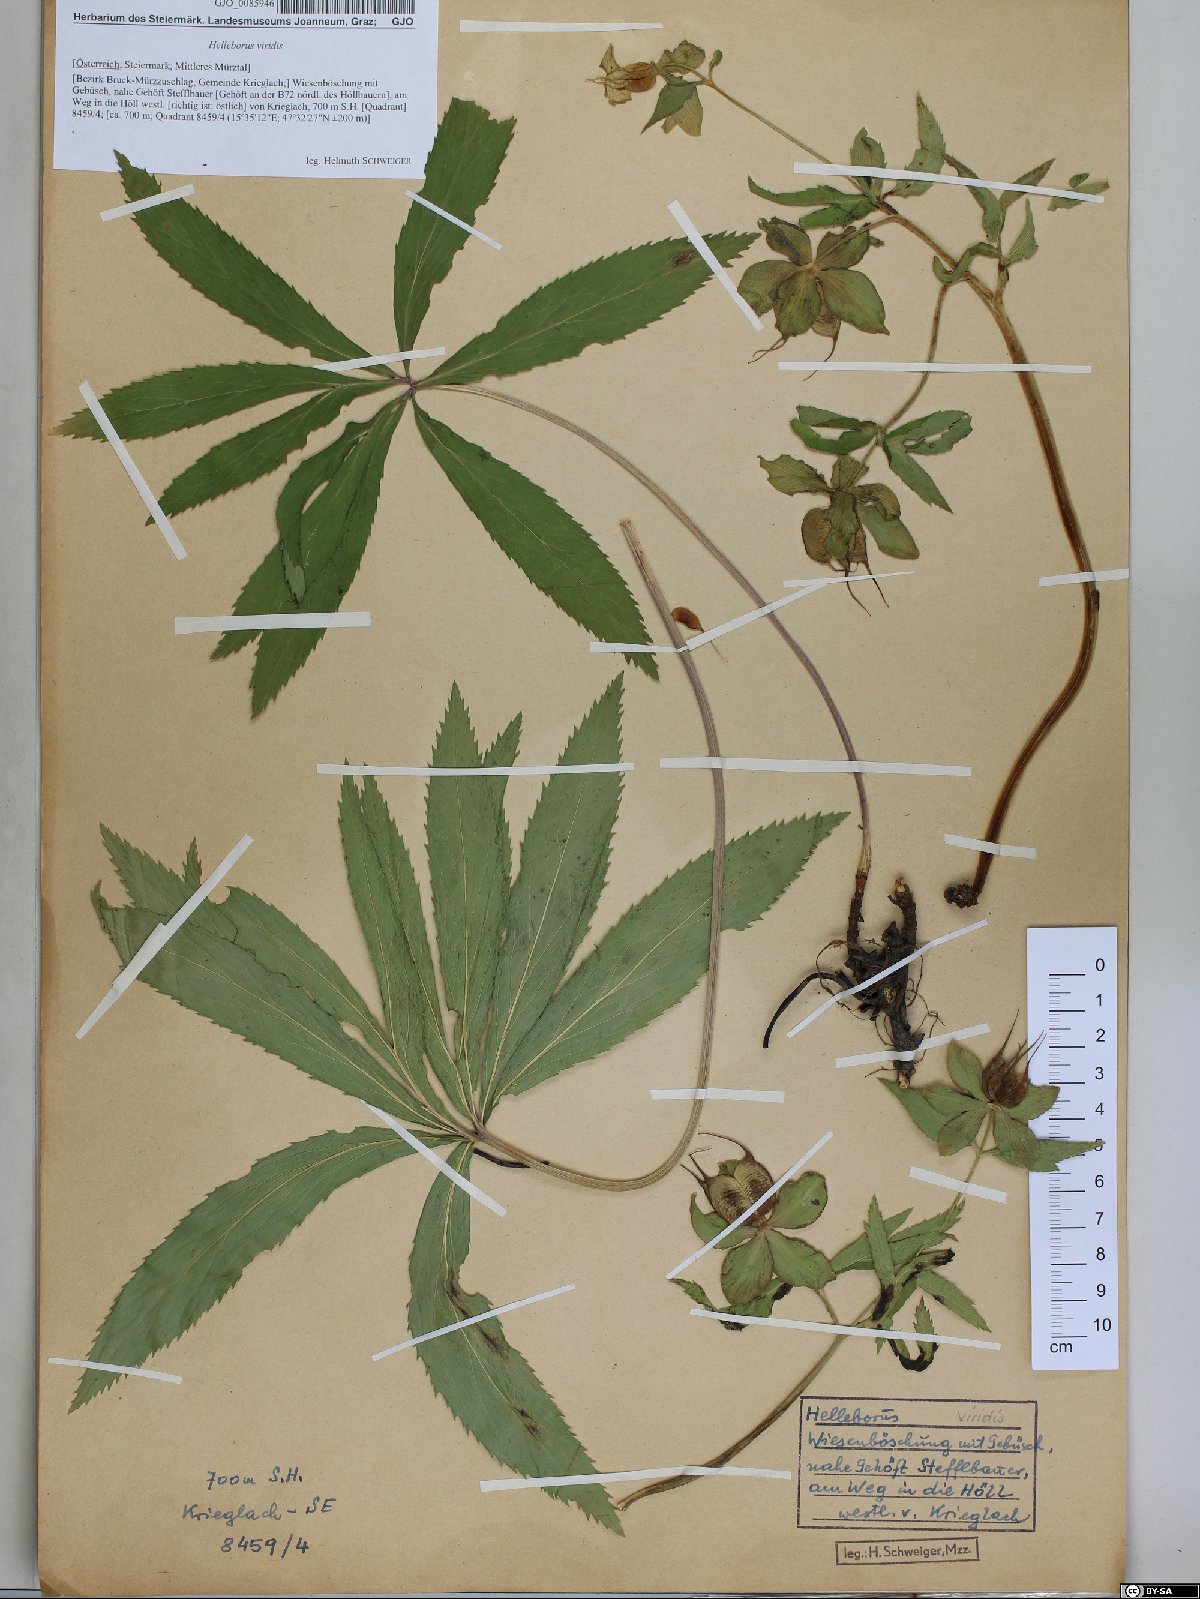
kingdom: Plantae
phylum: Tracheophyta
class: Magnoliopsida
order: Ranunculales
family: Ranunculaceae
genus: Helleborus
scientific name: Helleborus viridis
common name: Green hellebore
